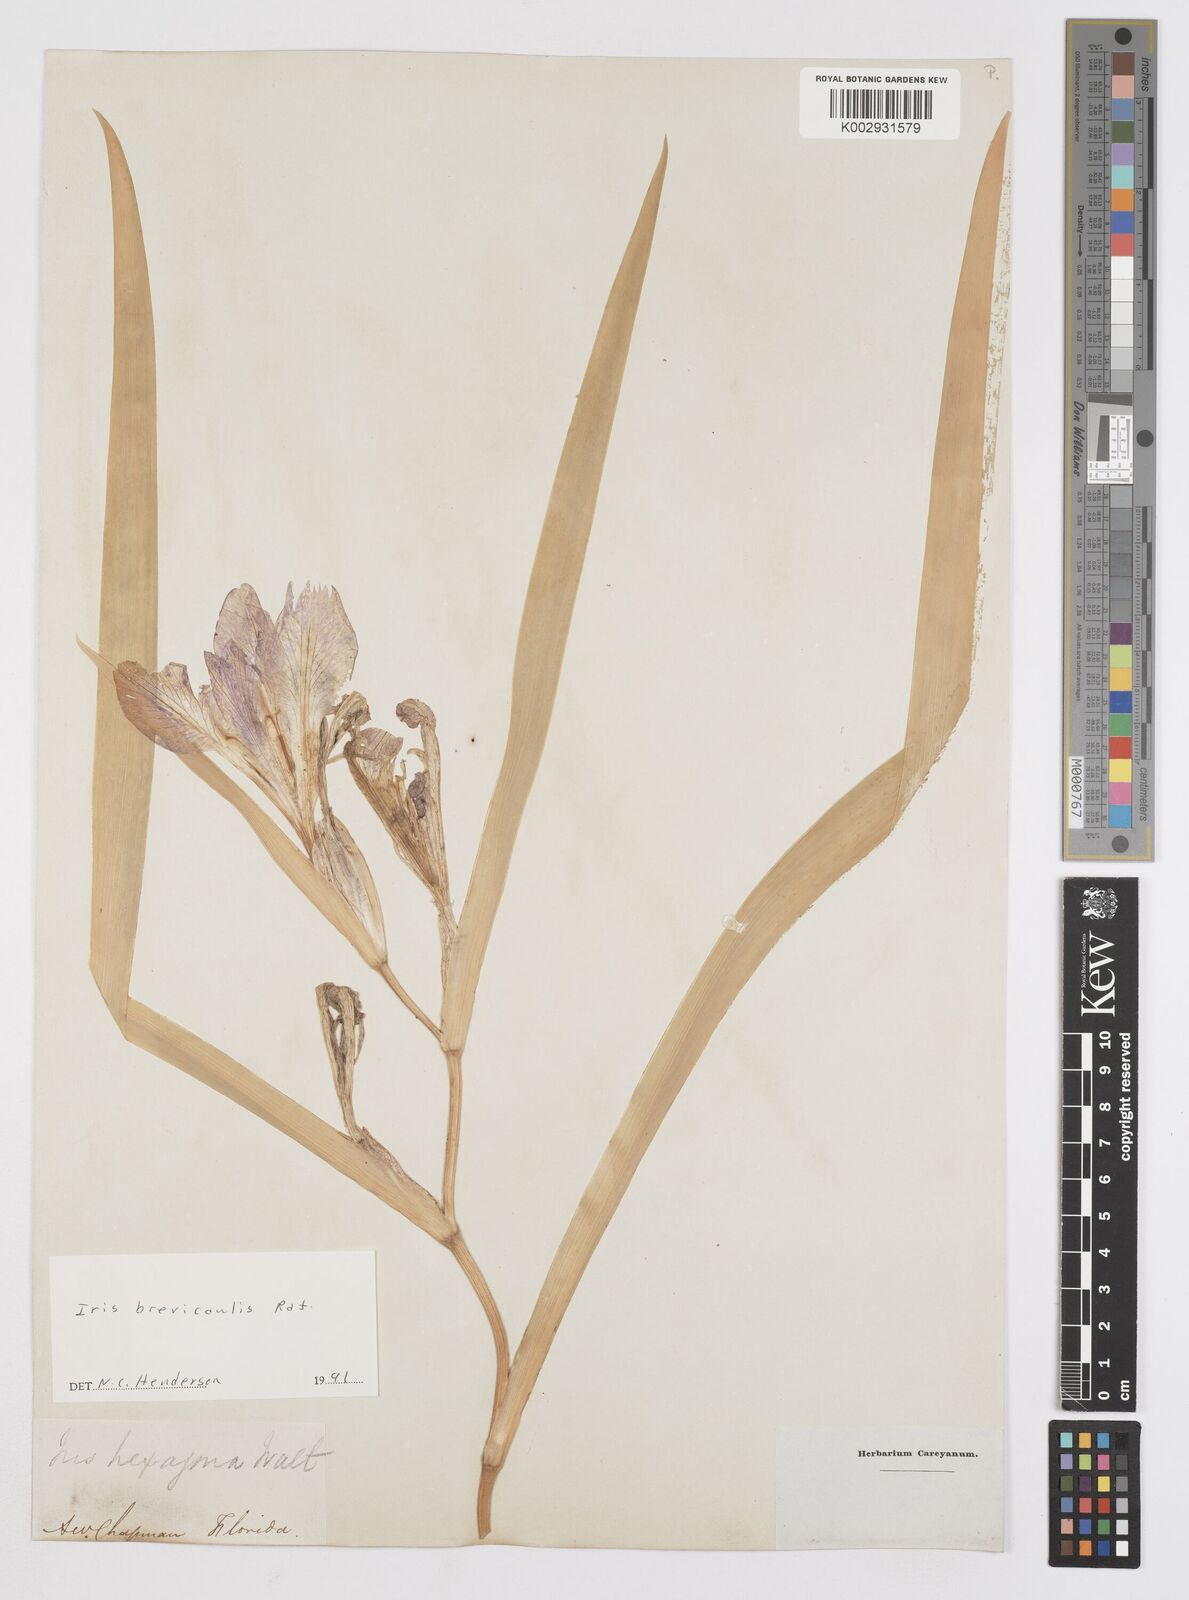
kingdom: Plantae
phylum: Tracheophyta
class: Liliopsida
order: Asparagales
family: Iridaceae
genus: Iris
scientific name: Iris brevicaulis
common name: Zigzag iris
